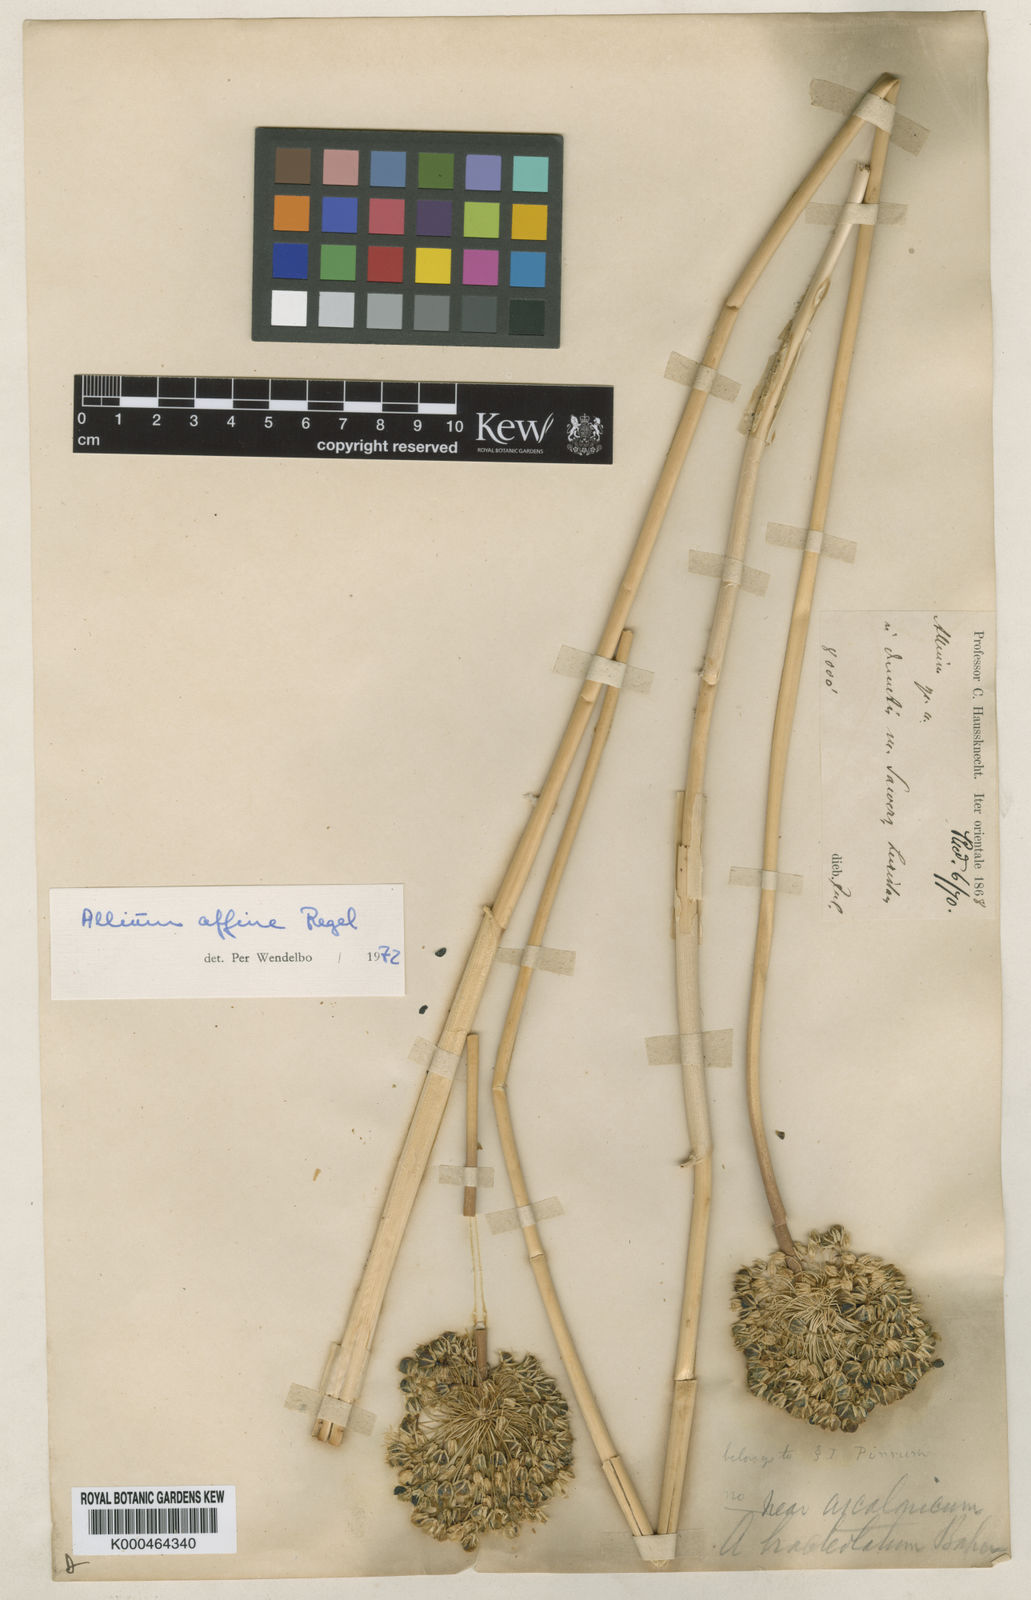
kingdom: Plantae
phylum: Tracheophyta
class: Liliopsida
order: Asparagales
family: Amaryllidaceae
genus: Allium
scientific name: Allium affine
